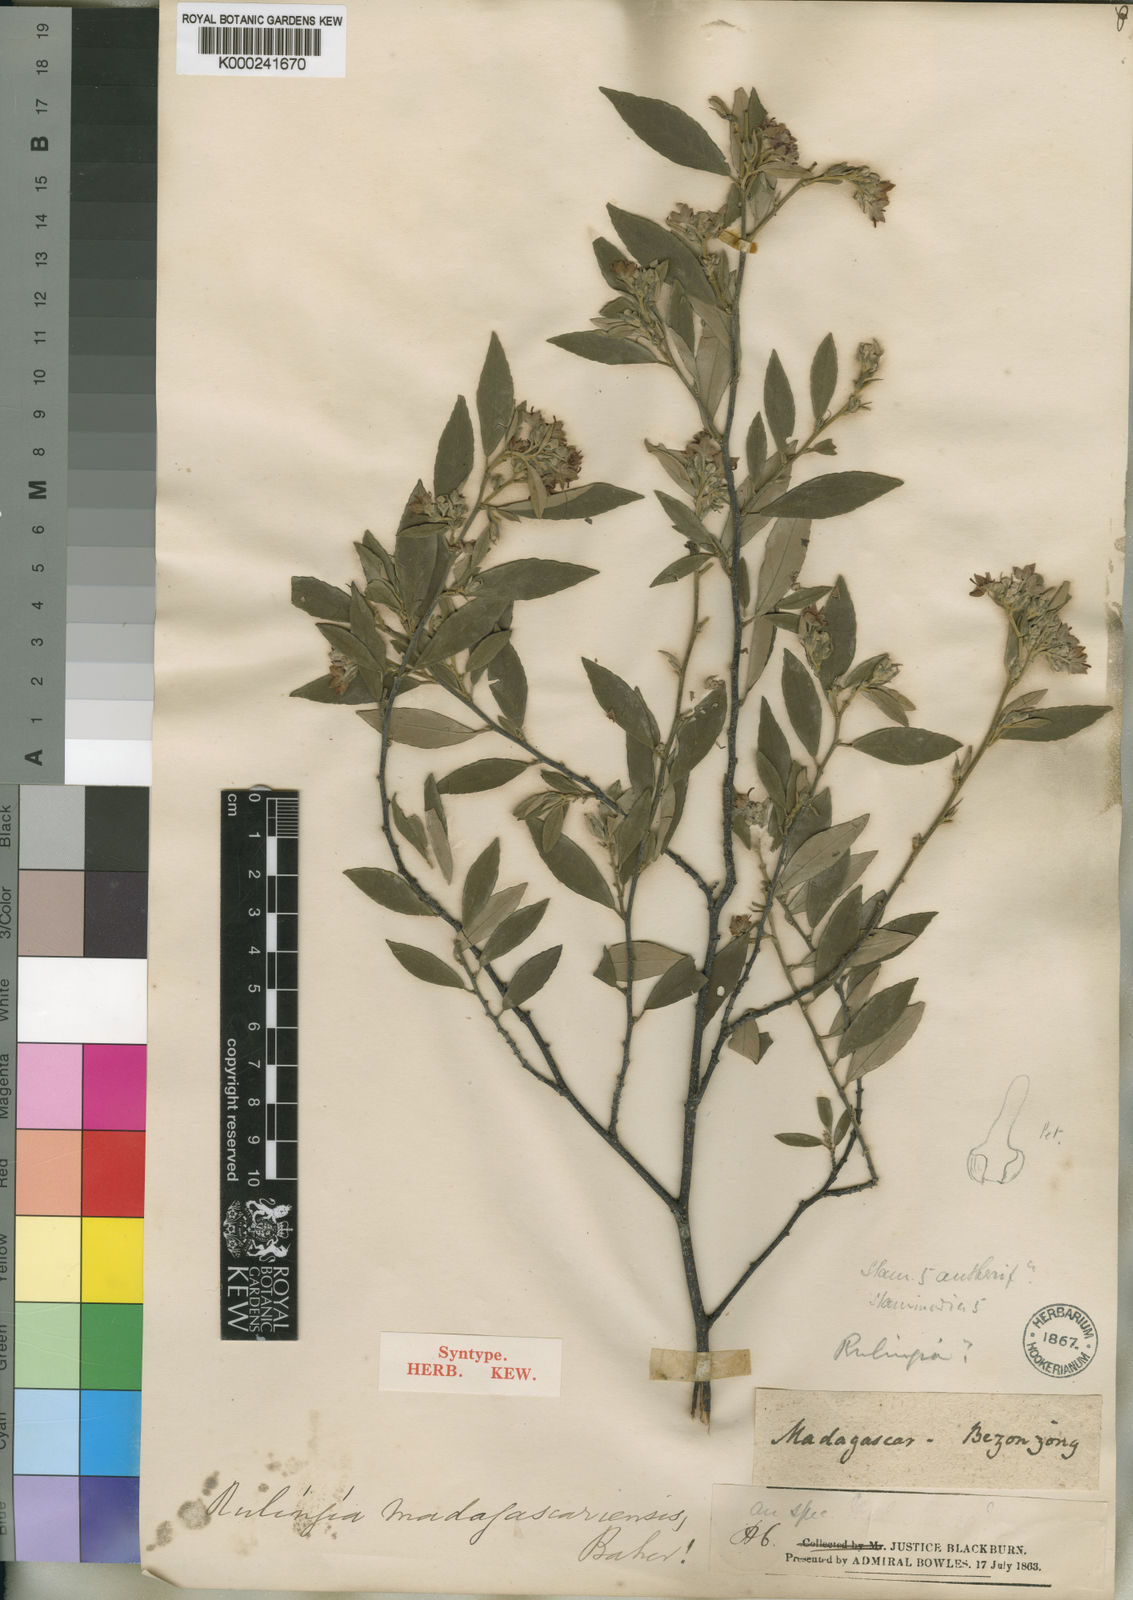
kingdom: Plantae
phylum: Tracheophyta
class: Magnoliopsida
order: Malvales
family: Malvaceae
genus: Commersonia
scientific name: Commersonia madagascariensis
